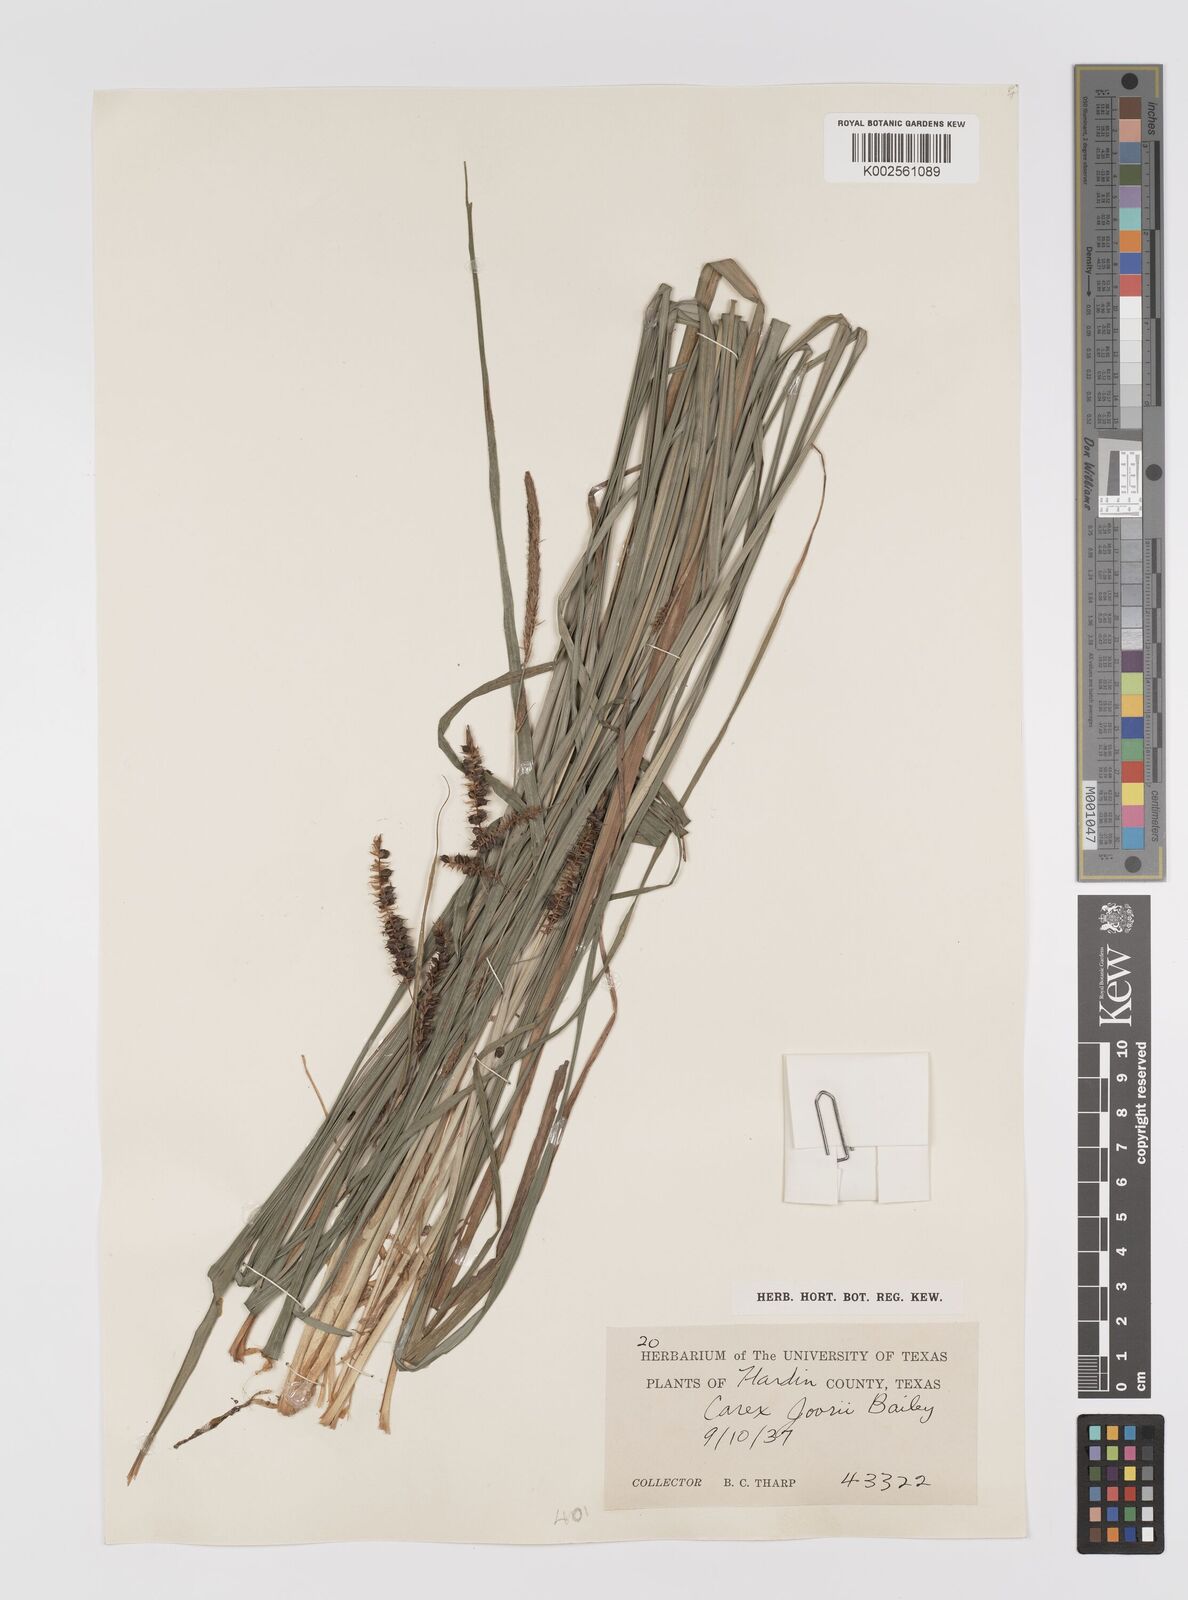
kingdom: Plantae
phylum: Tracheophyta
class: Liliopsida
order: Poales
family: Cyperaceae
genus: Carex
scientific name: Carex joorii
